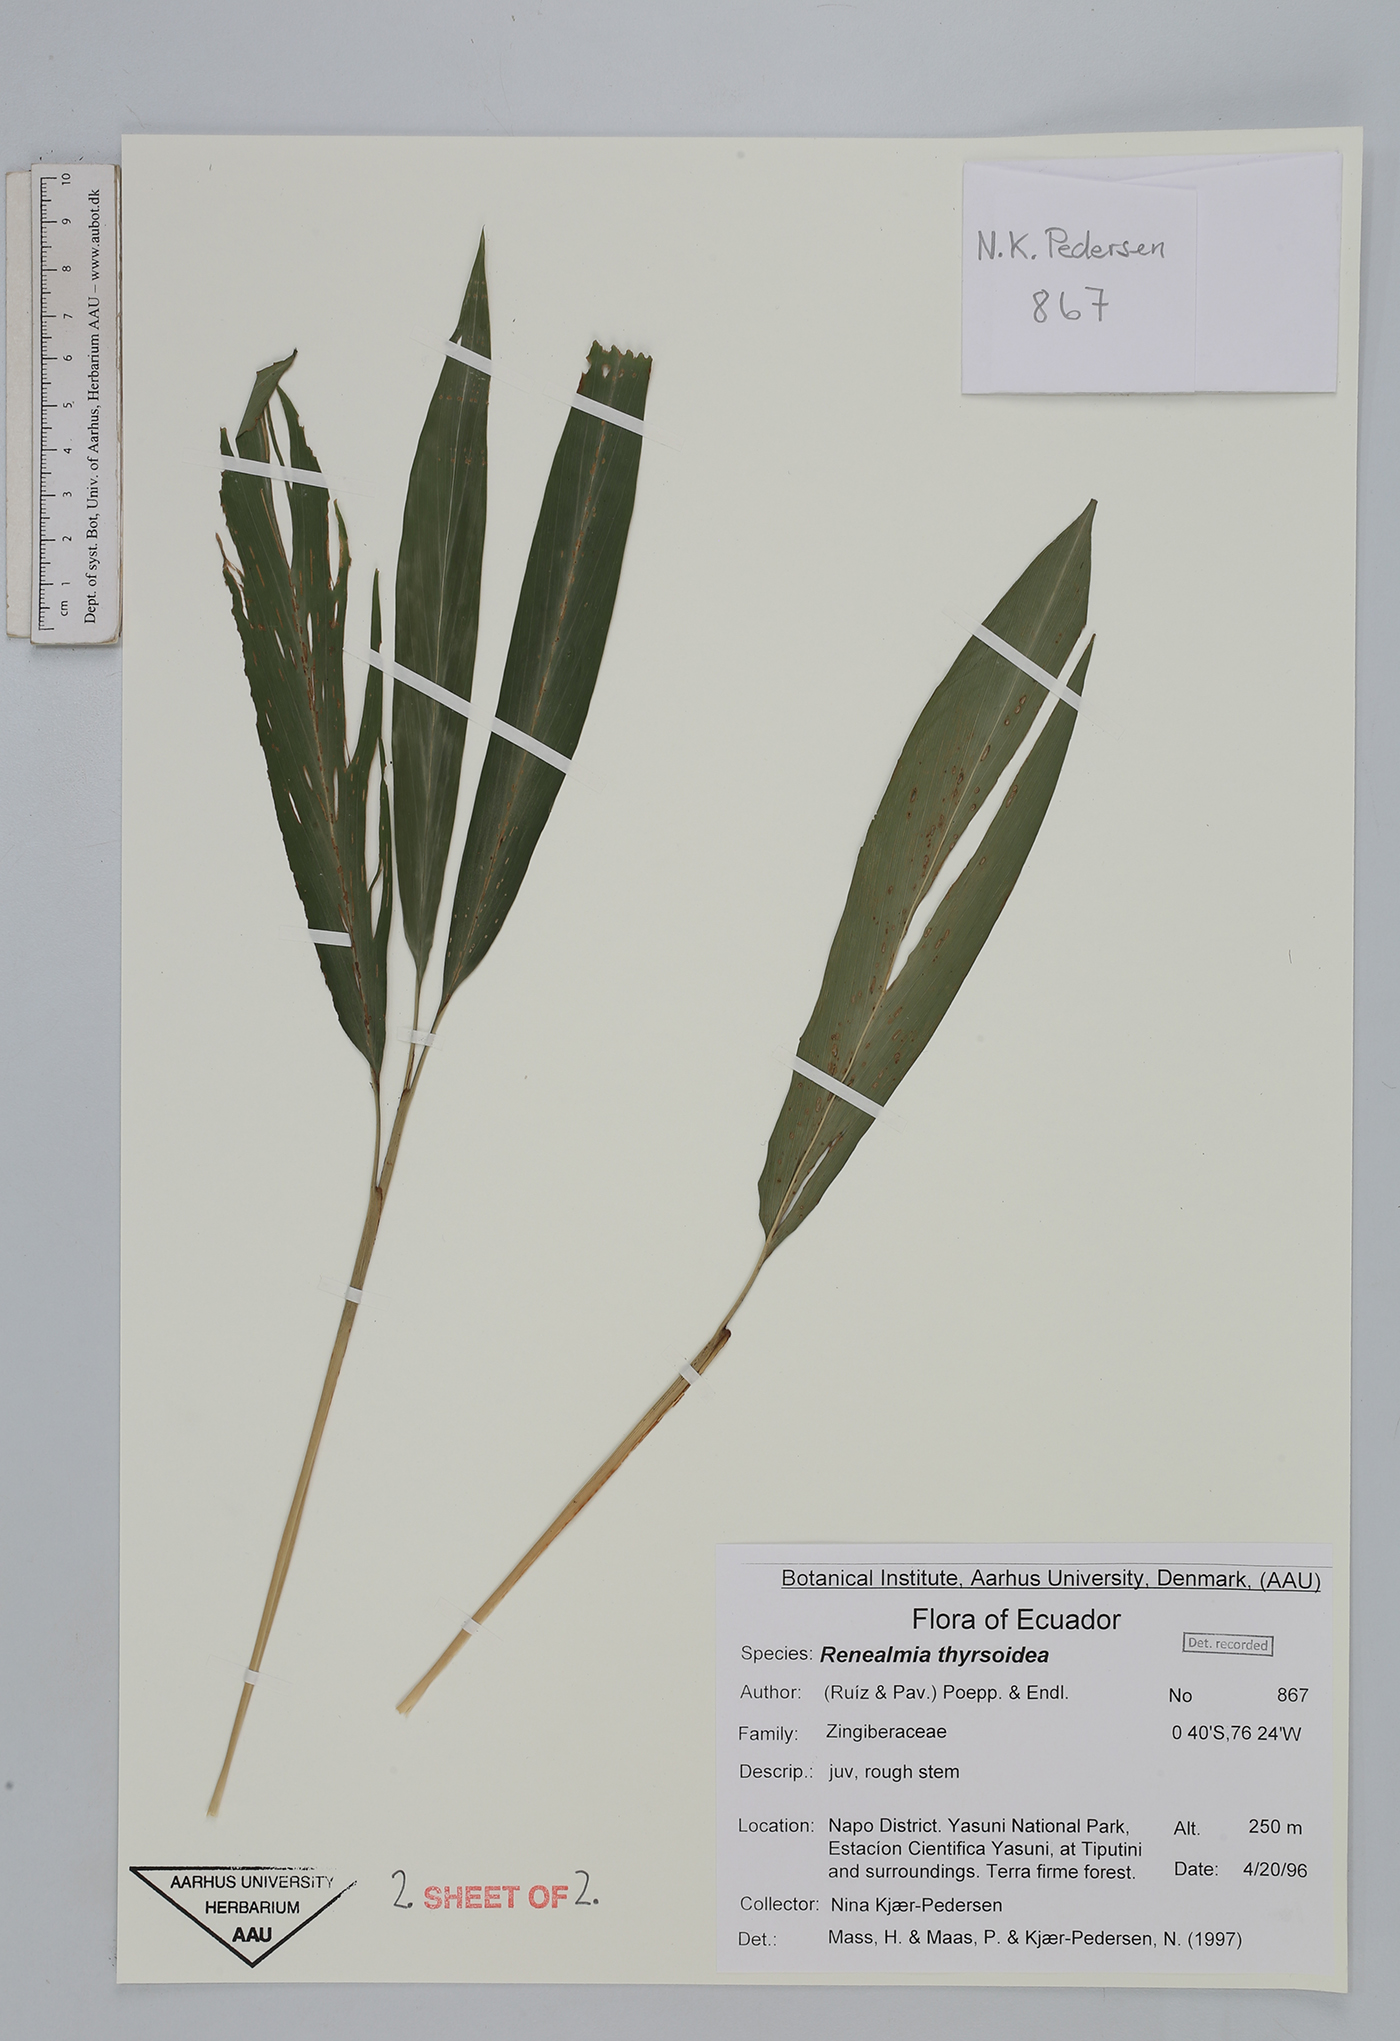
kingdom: Plantae
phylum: Tracheophyta
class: Liliopsida
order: Zingiberales
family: Zingiberaceae
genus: Renealmia
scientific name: Renealmia thyrsoidea
